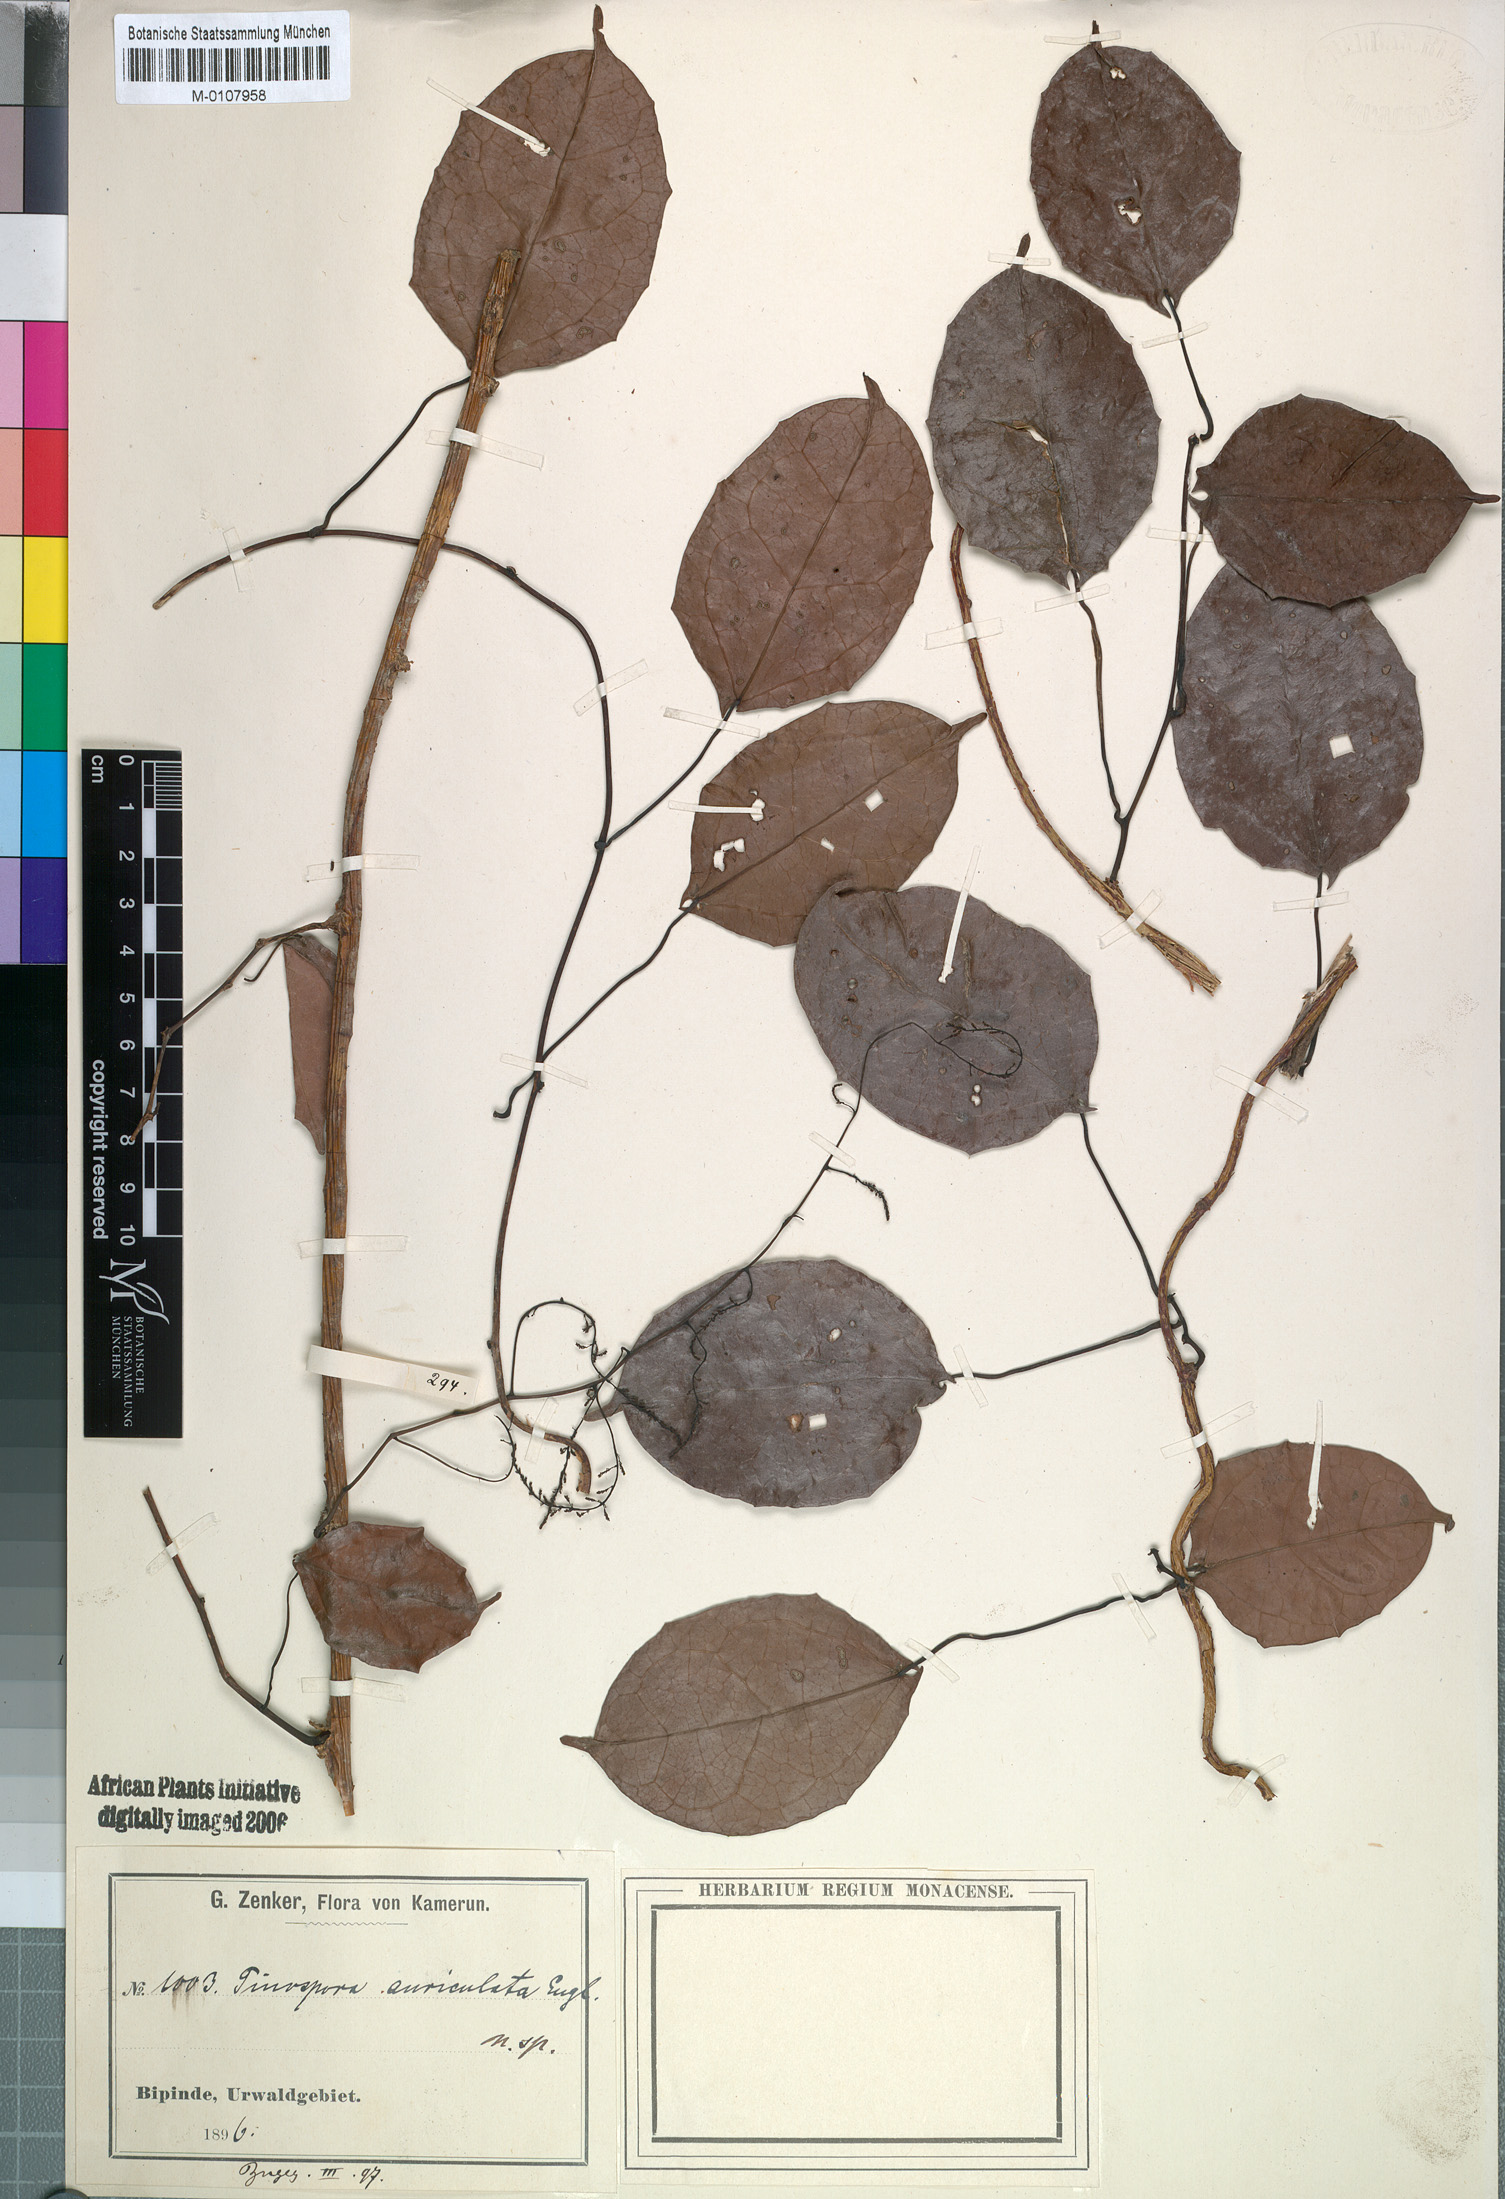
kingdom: Plantae
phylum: Tracheophyta
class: Magnoliopsida
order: Ranunculales
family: Menispermaceae
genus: Kolobopetalum
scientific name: Kolobopetalum auriculatum
